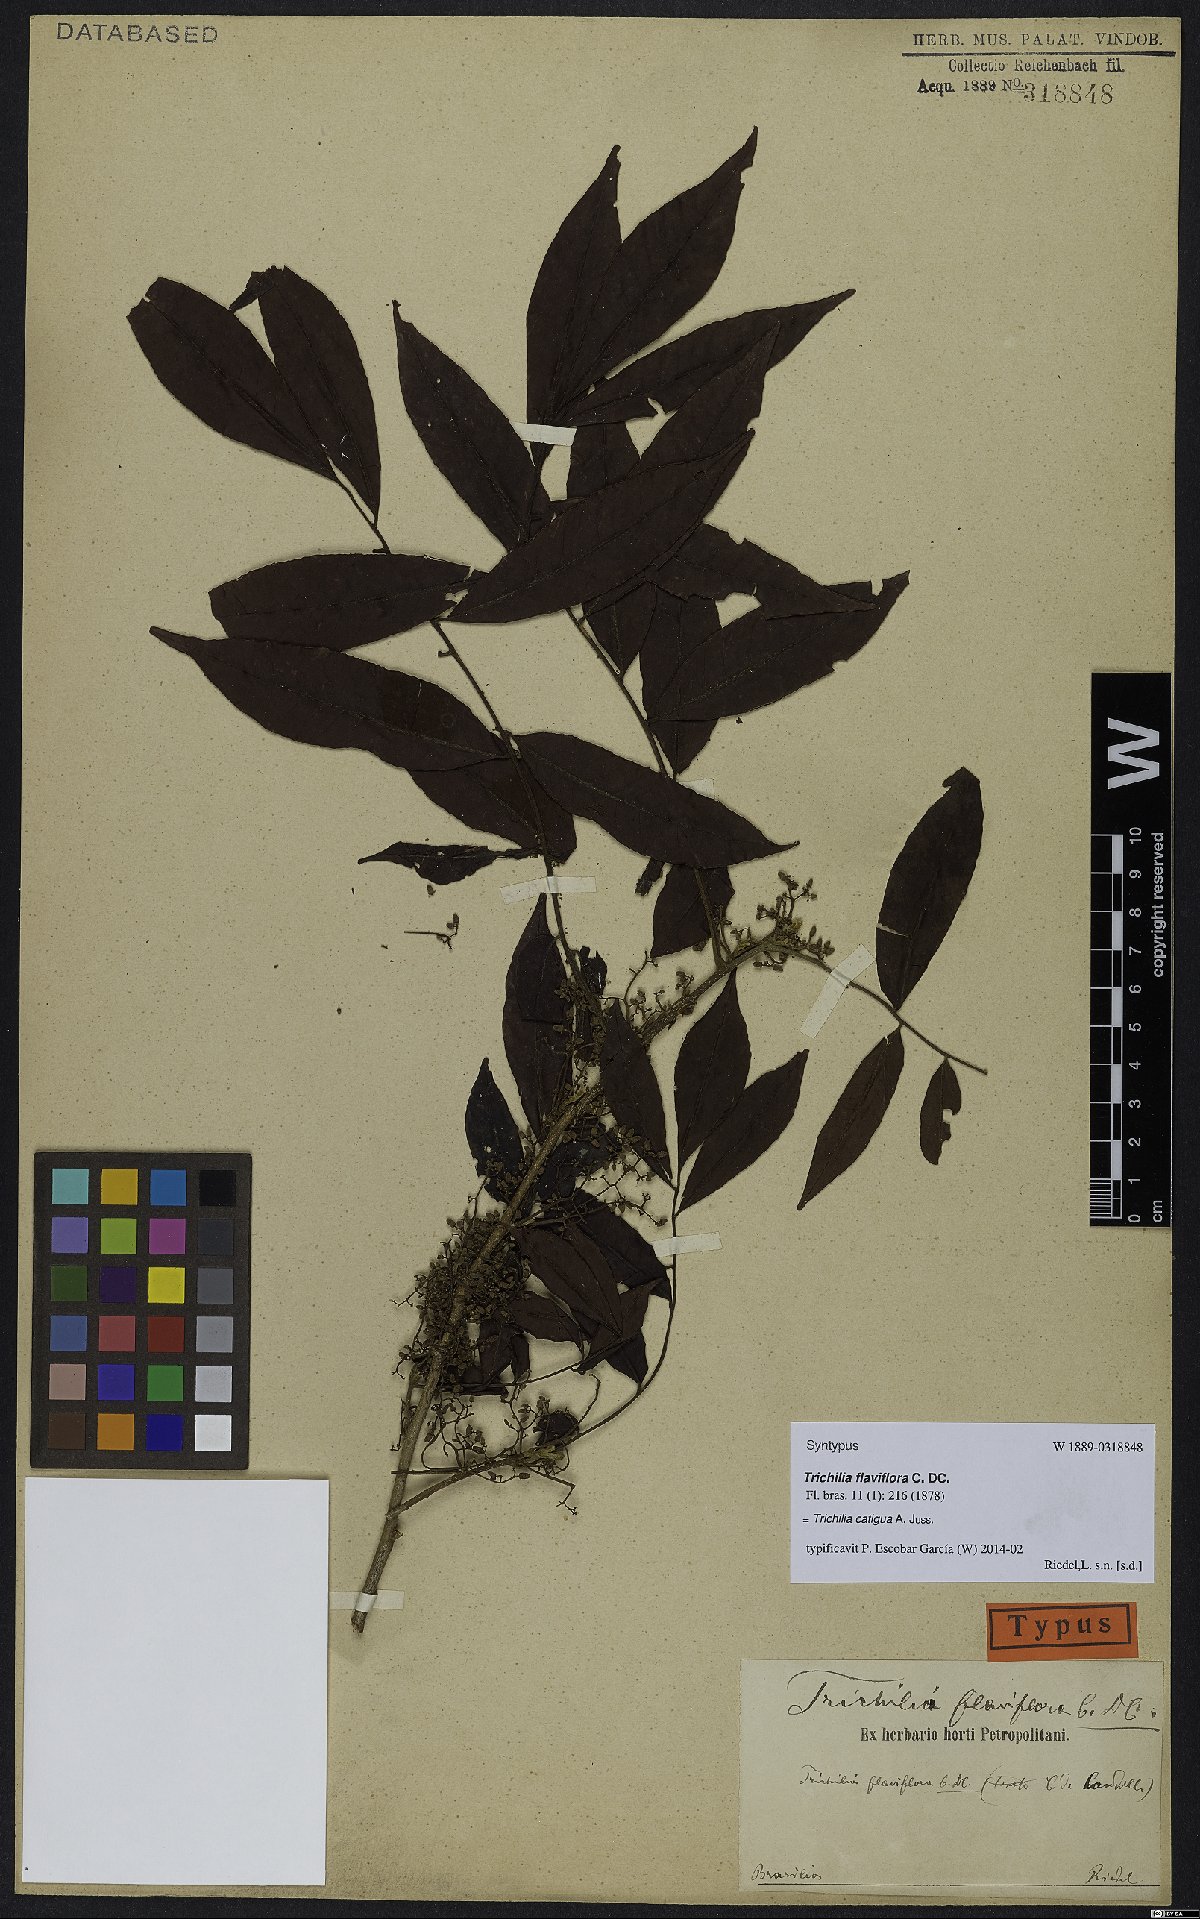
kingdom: Plantae
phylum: Tracheophyta
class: Magnoliopsida
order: Sapindales
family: Meliaceae
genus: Trichilia
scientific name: Trichilia catigua
